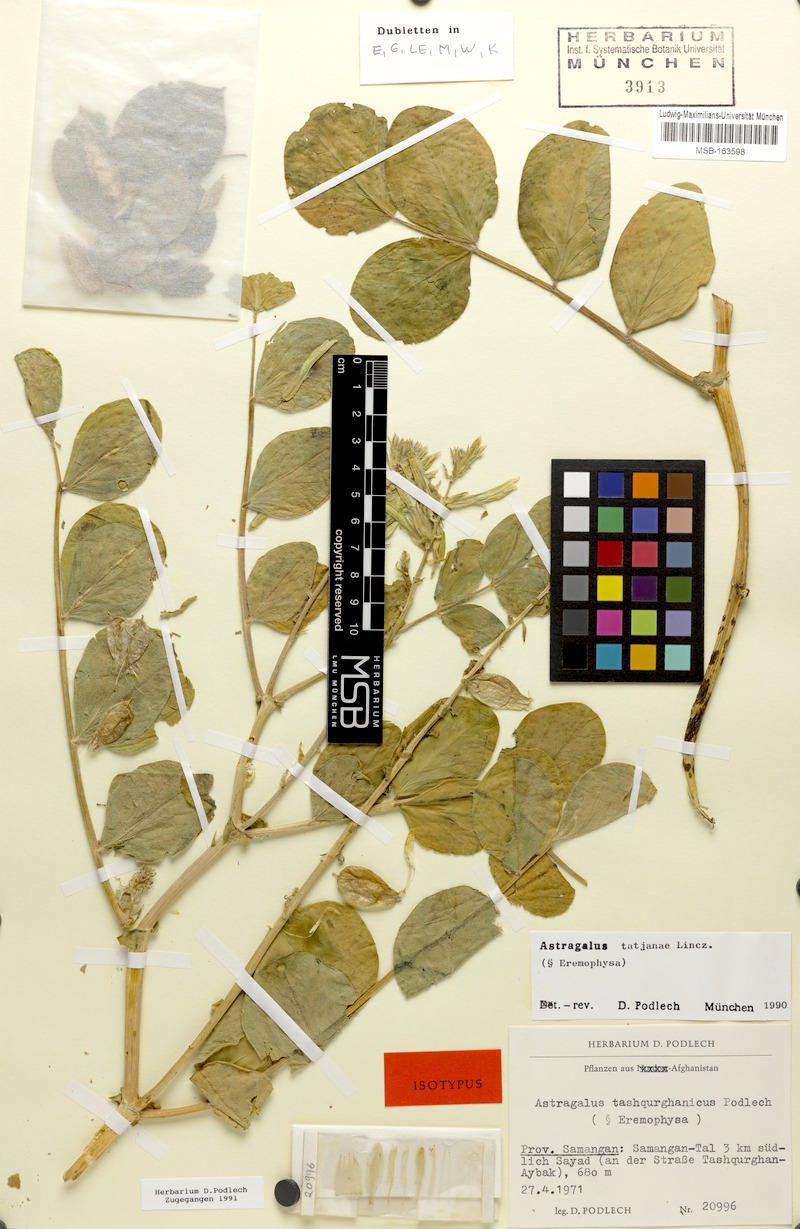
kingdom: Plantae
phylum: Tracheophyta
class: Magnoliopsida
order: Fabales
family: Fabaceae
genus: Astragalus
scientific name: Astragalus tatjanae
